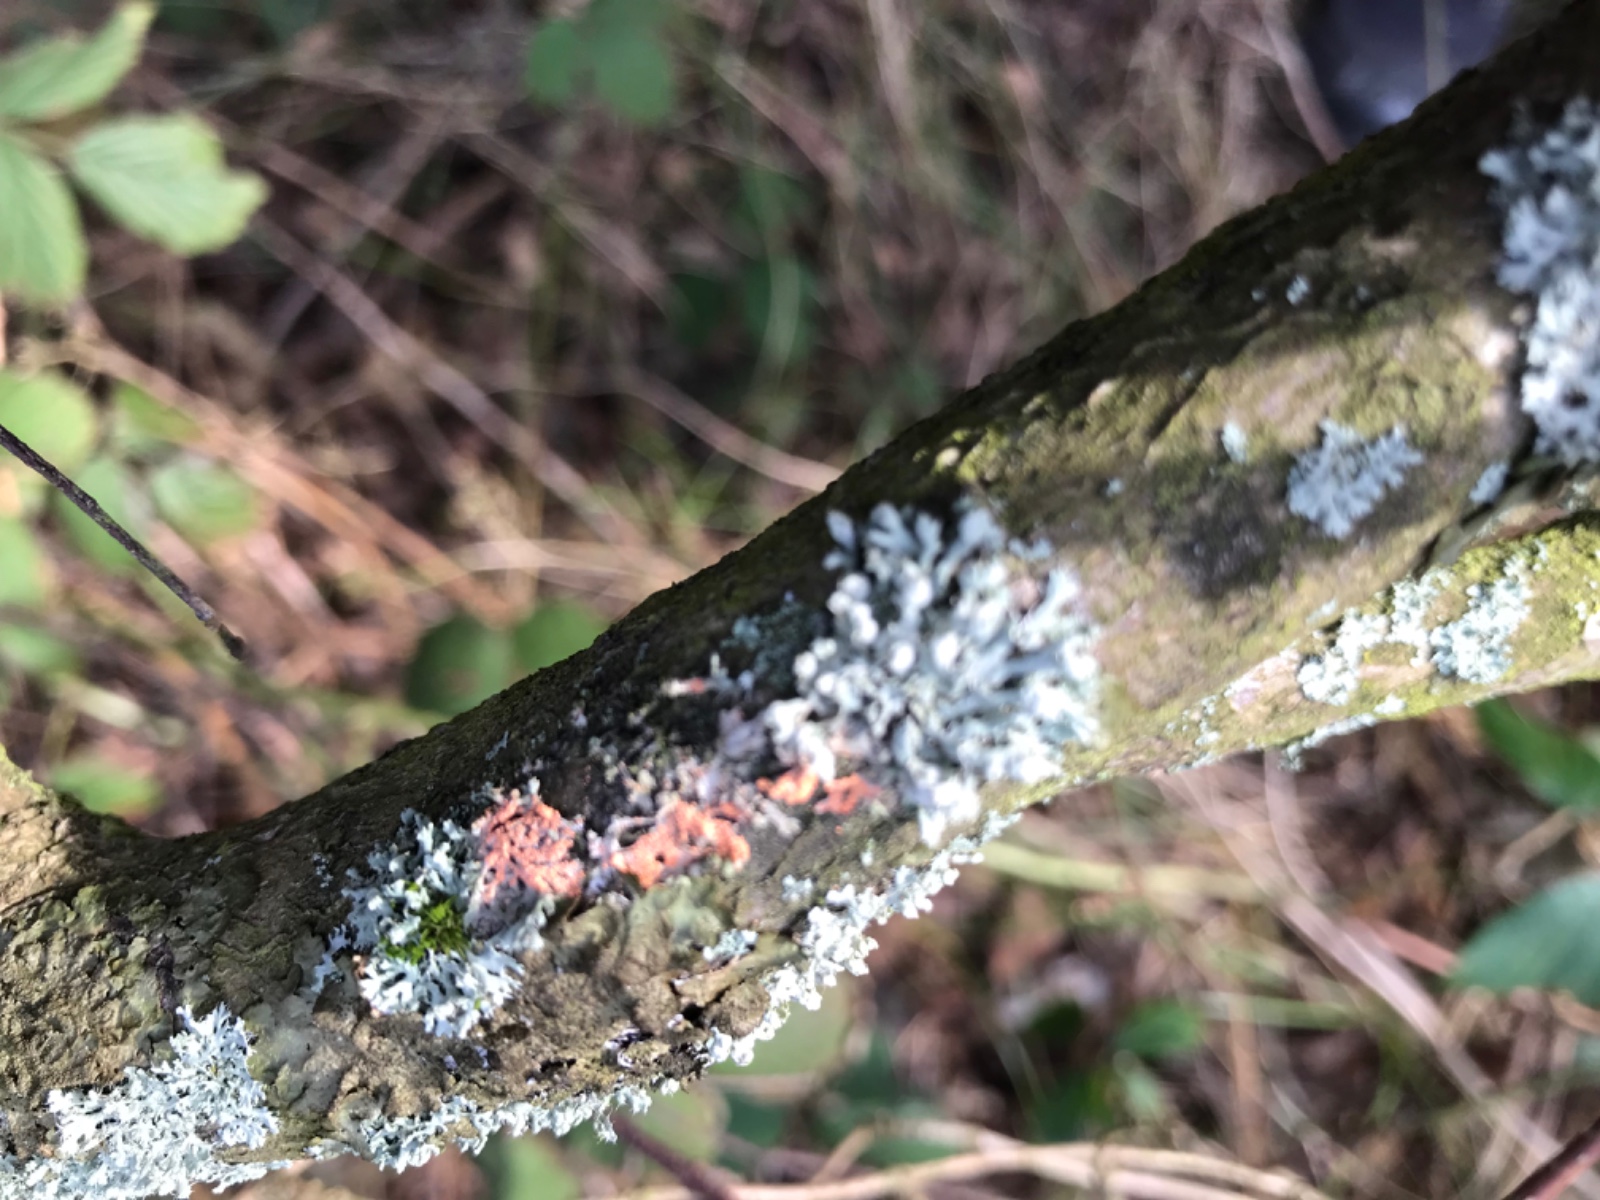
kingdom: Fungi
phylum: Basidiomycota
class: Agaricomycetes
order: Corticiales
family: Corticiaceae
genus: Erythricium
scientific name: Erythricium aurantiacum
